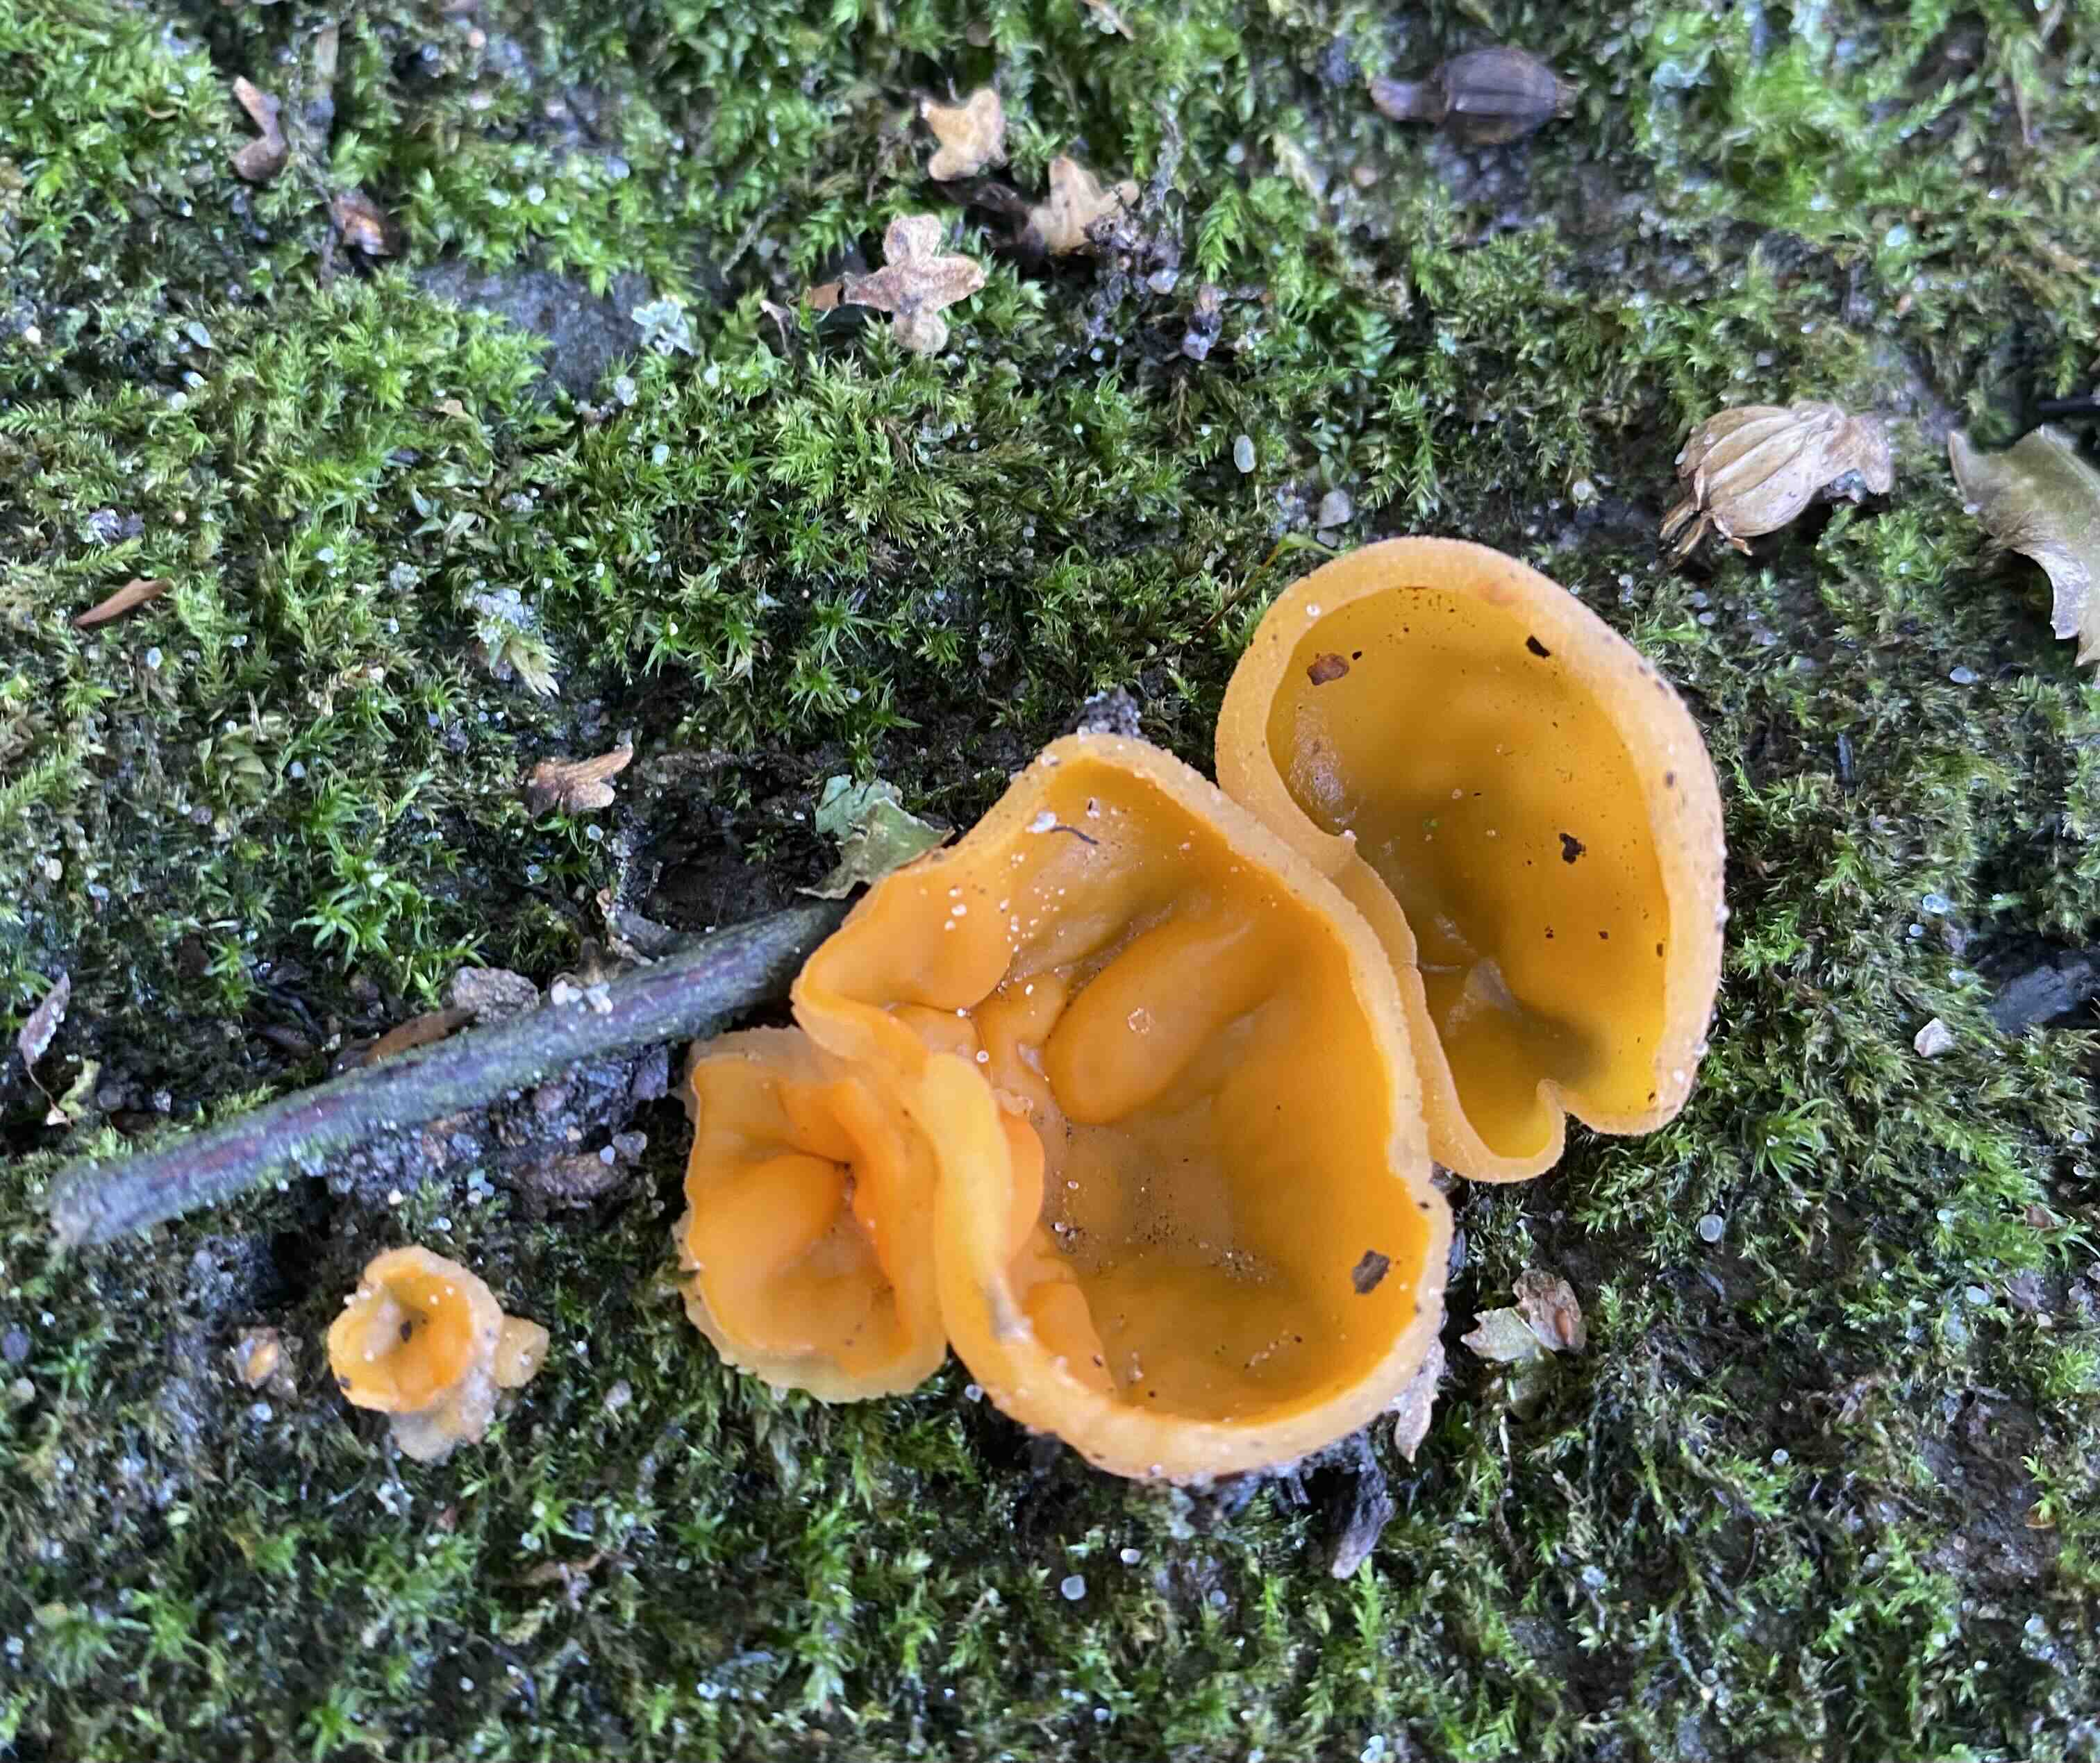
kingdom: Fungi
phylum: Ascomycota
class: Pezizomycetes
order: Pezizales
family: Pyronemataceae
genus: Aleuria
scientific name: Aleuria aurantia
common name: almindelig orangebæger
